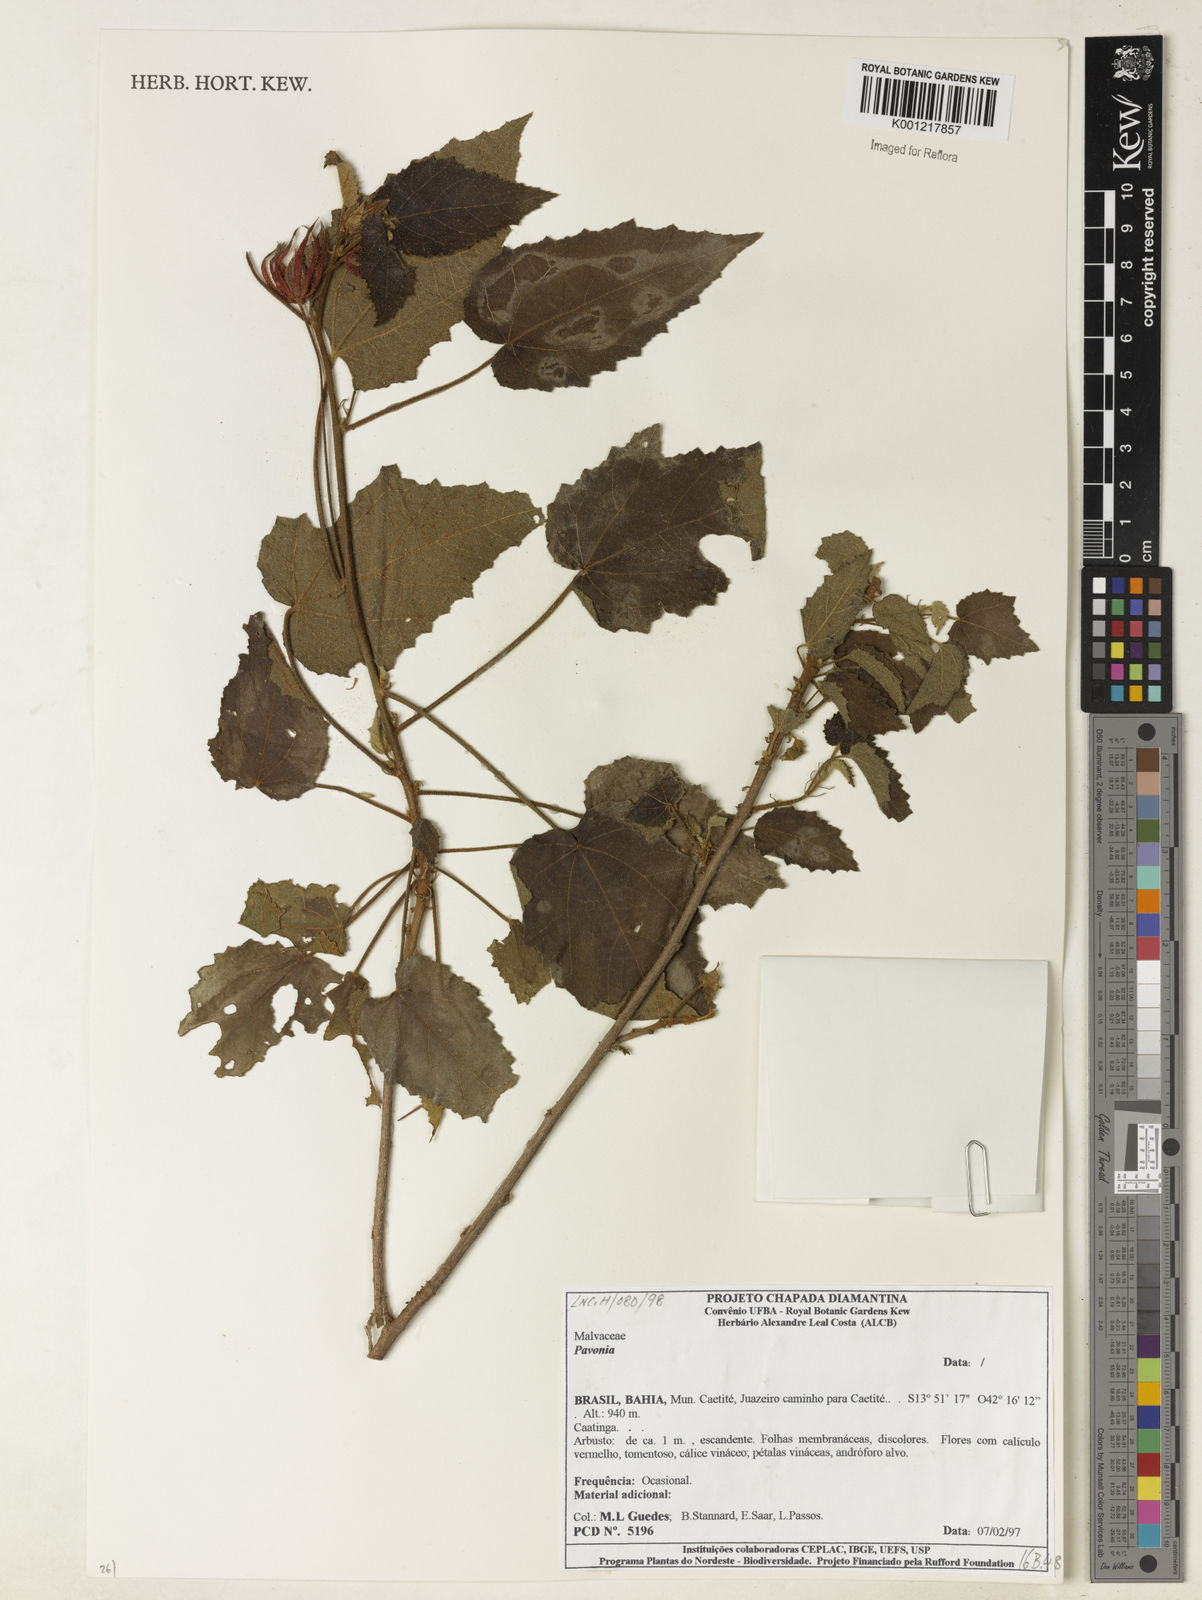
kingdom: Plantae
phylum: Tracheophyta
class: Magnoliopsida
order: Malvales
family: Malvaceae
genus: Pavonia
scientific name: Pavonia
